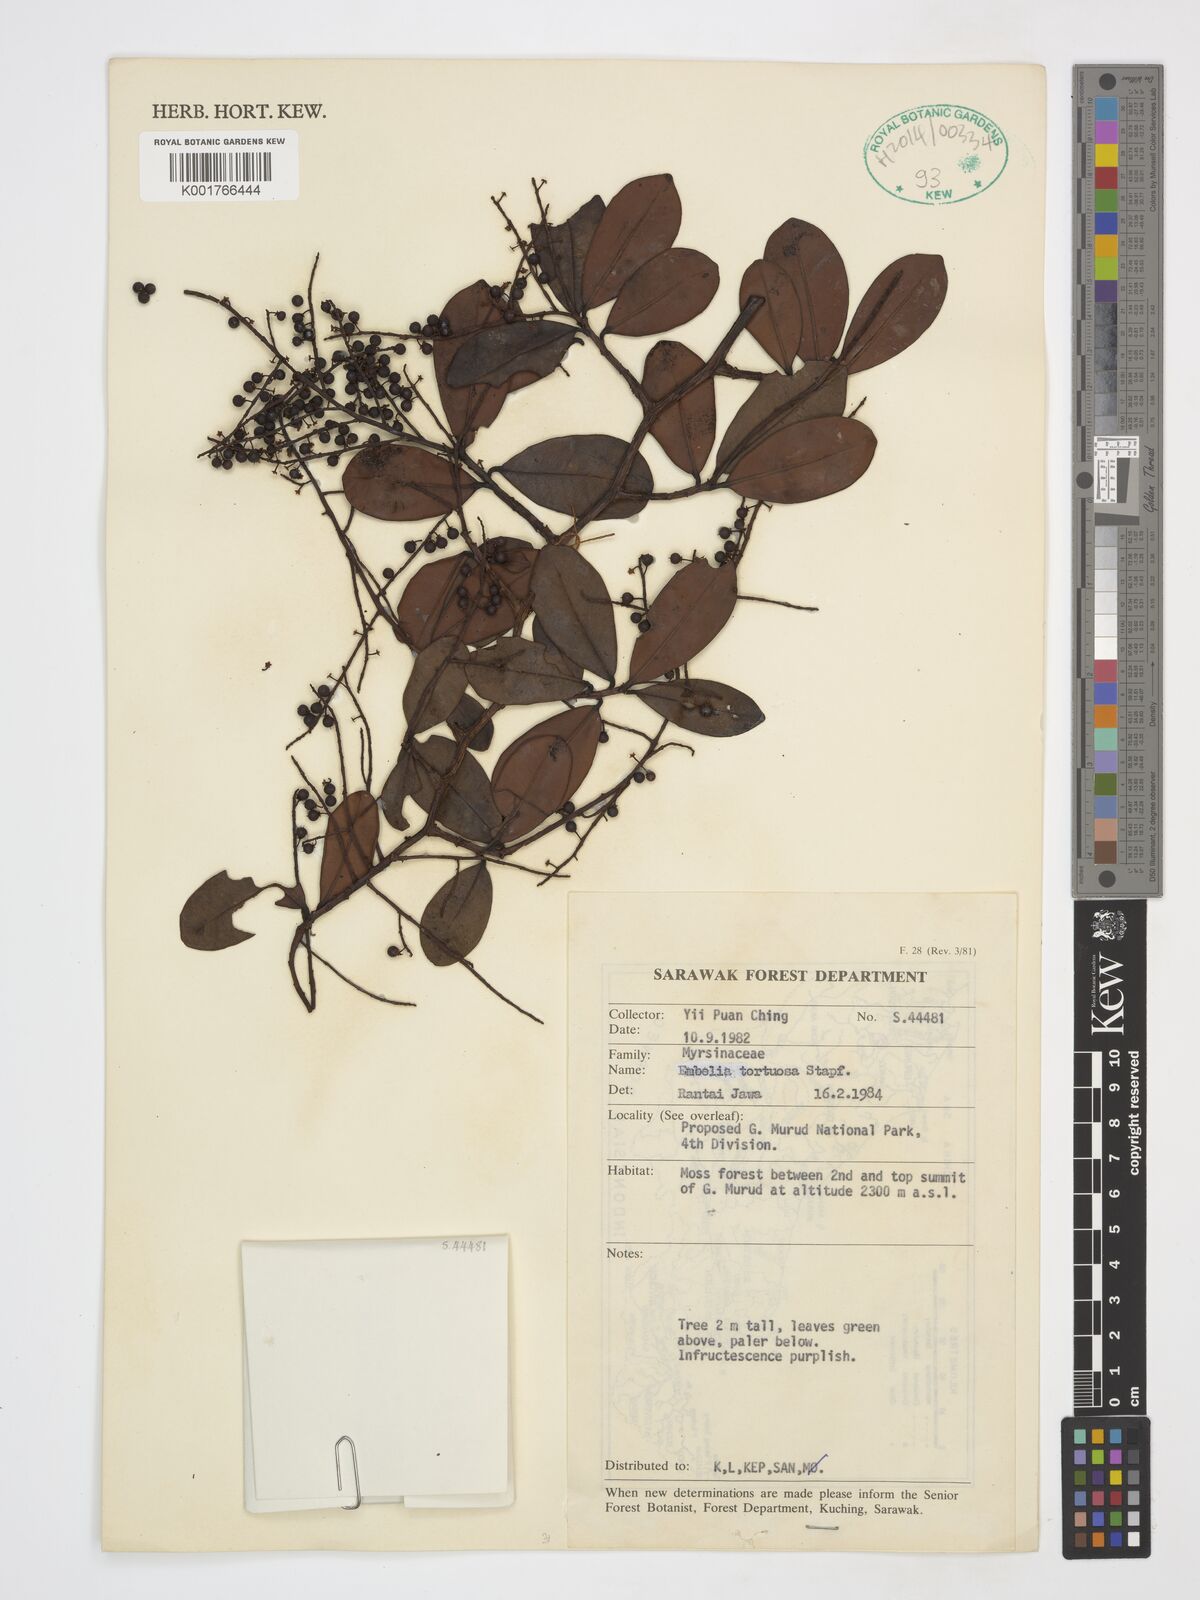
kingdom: Plantae
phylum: Tracheophyta
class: Magnoliopsida
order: Ericales
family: Primulaceae
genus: Embelia
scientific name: Embelia tortuosa
